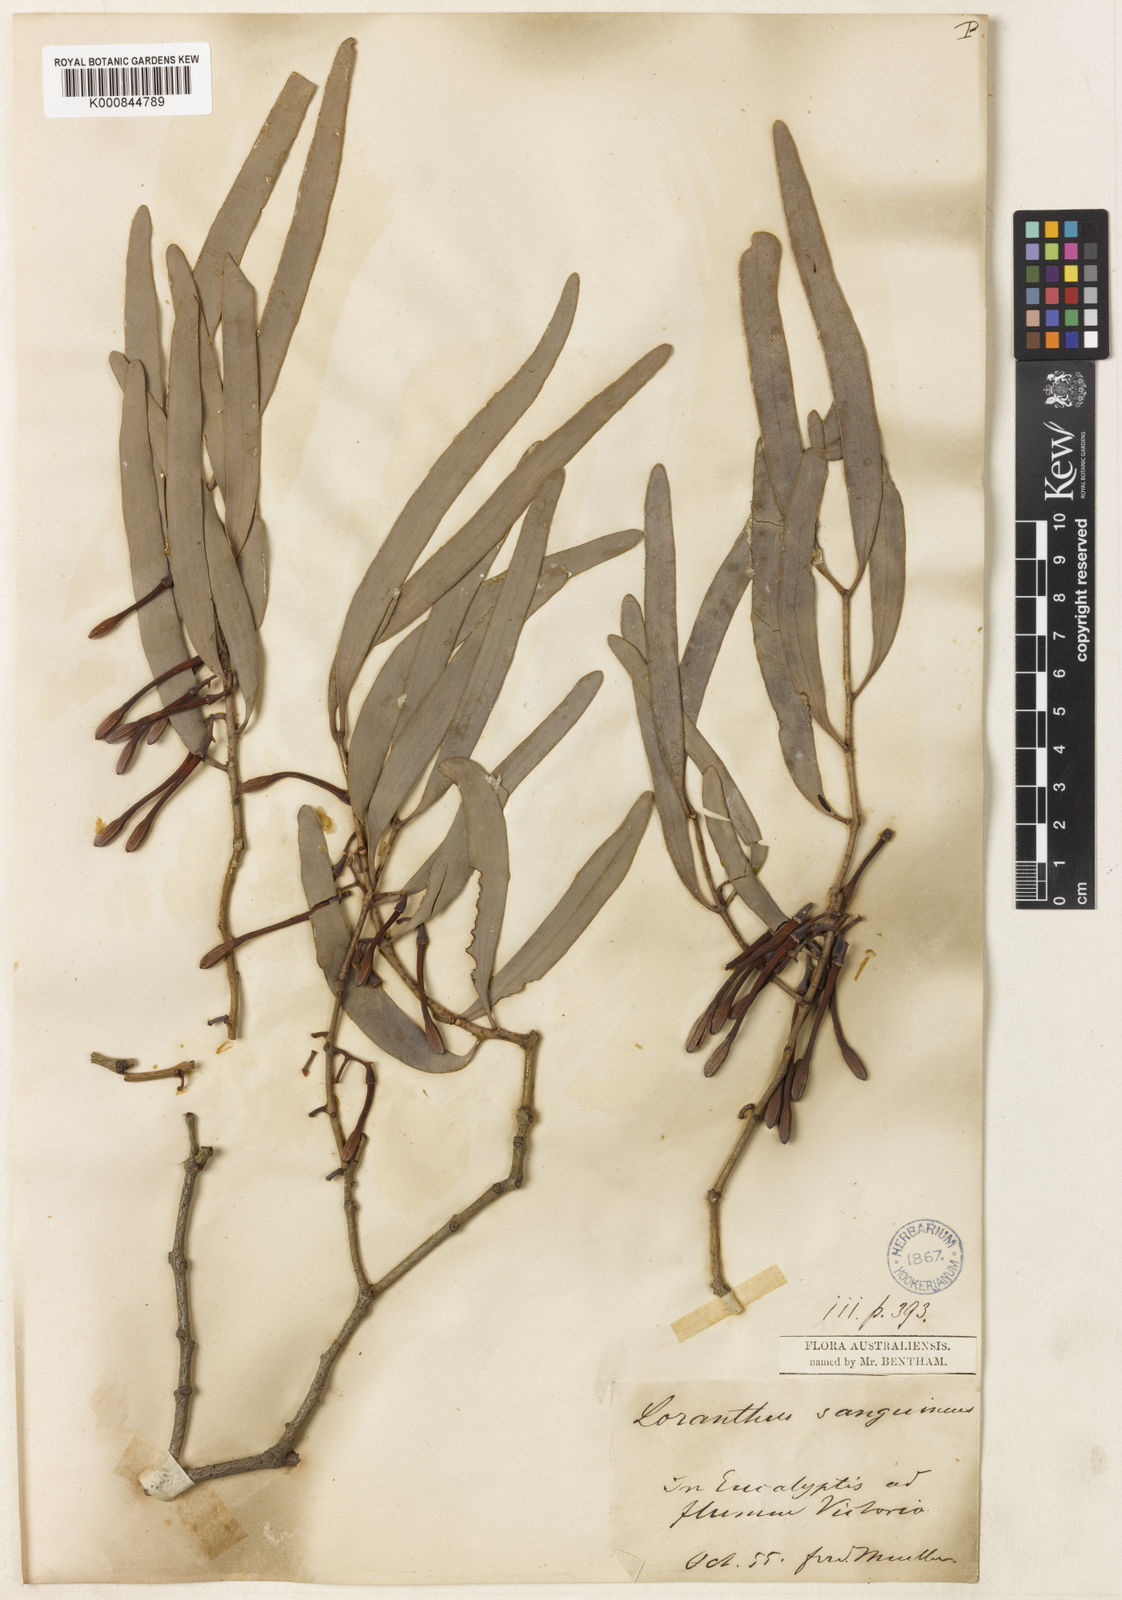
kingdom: Plantae
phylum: Tracheophyta
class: Magnoliopsida
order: Santalales
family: Loranthaceae
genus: Amyema
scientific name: Amyema
